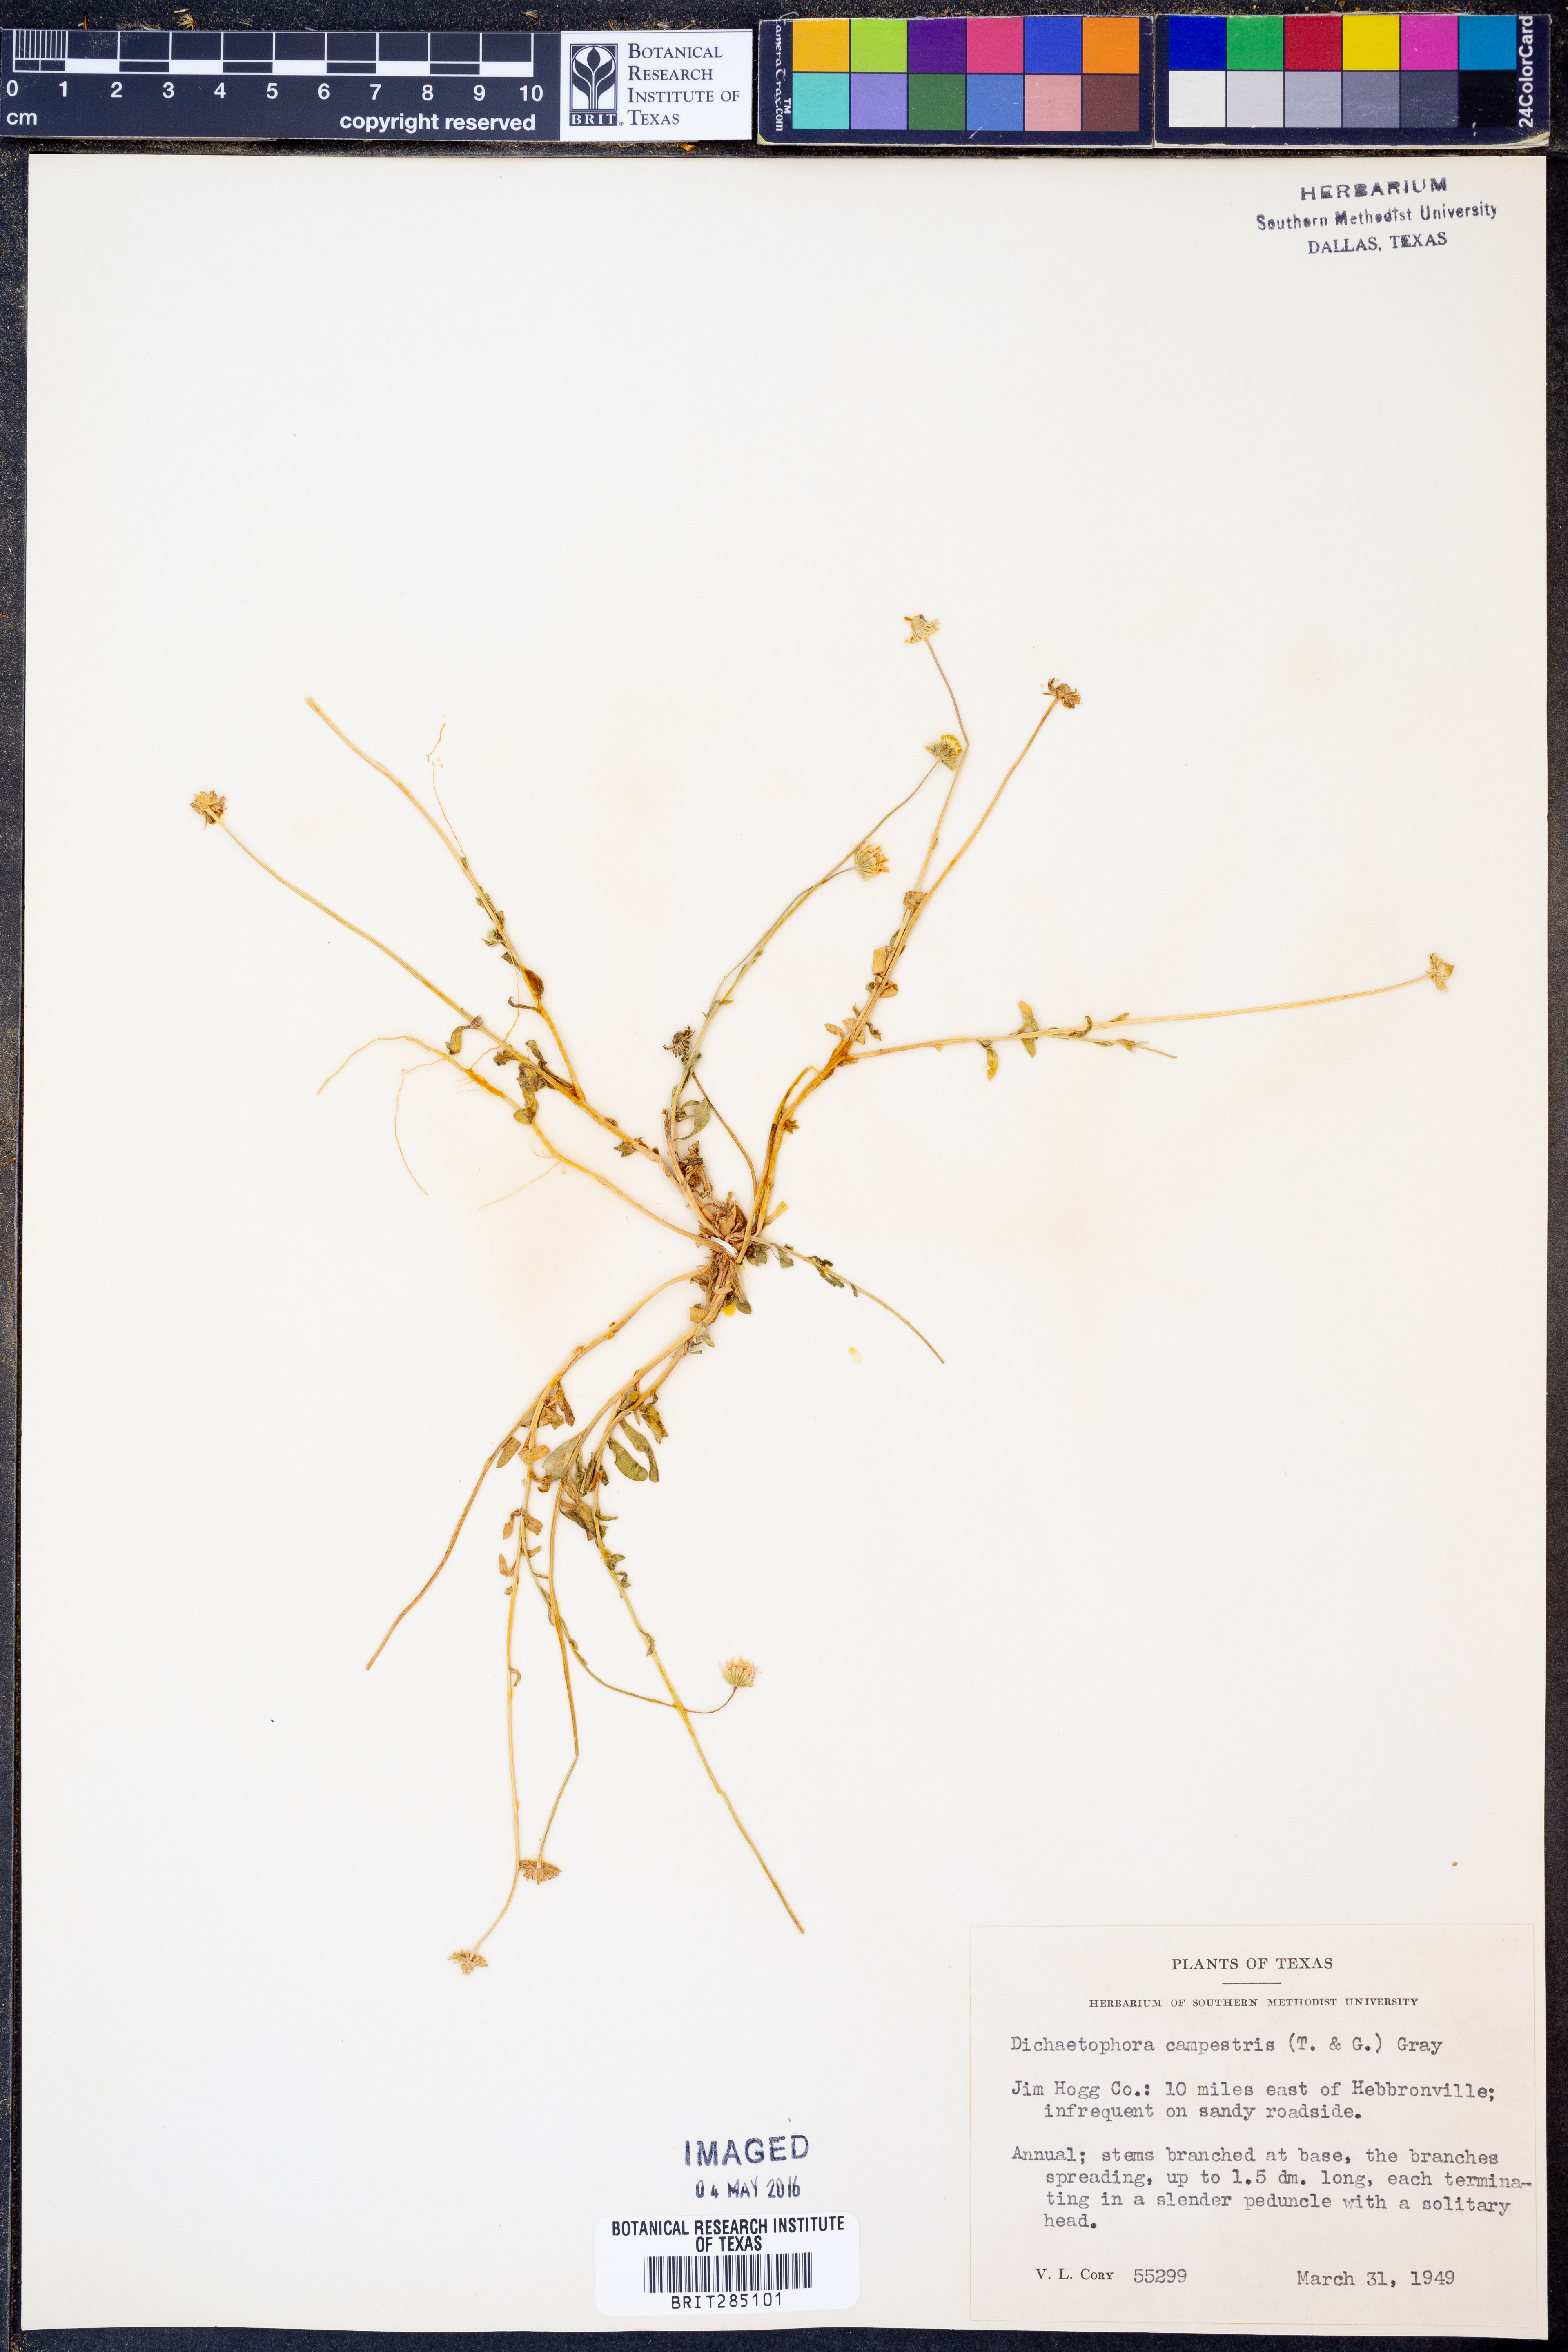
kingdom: Plantae
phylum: Tracheophyta
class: Magnoliopsida
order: Asterales
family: Asteraceae
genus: Dichaetophora
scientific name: Dichaetophora campestris
